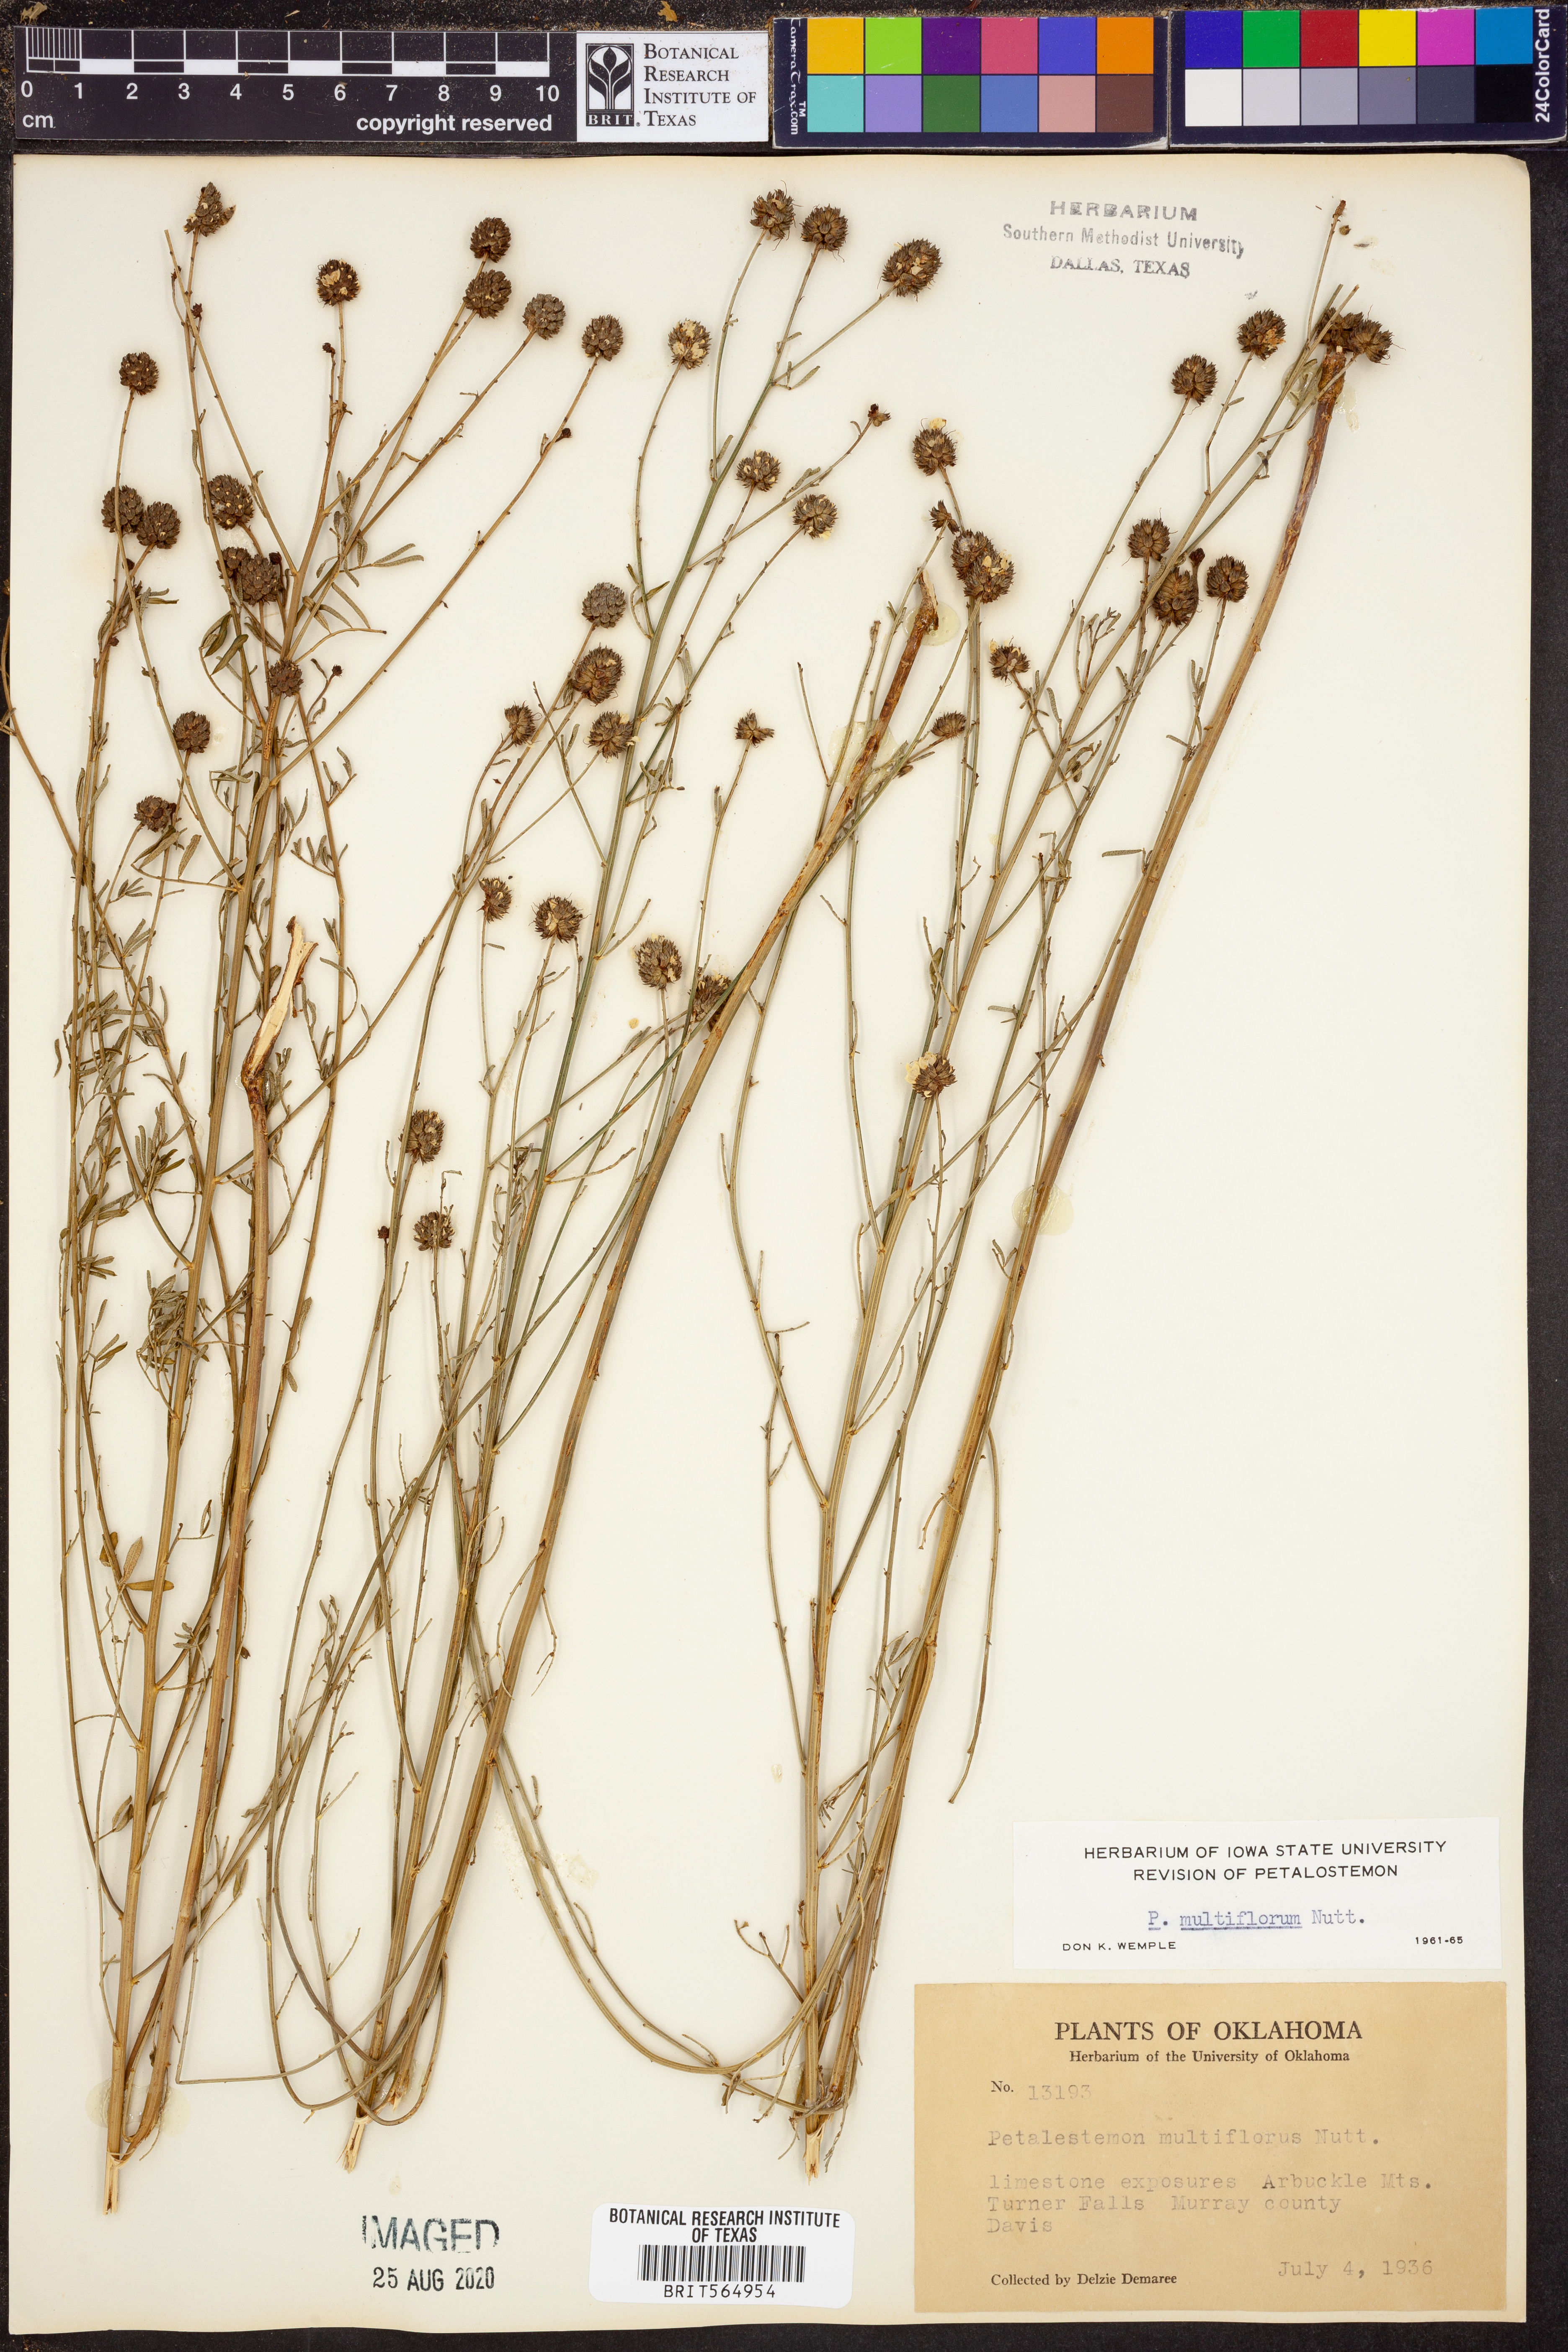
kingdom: Plantae
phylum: Tracheophyta
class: Magnoliopsida
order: Fabales
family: Fabaceae
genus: Dalea
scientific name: Dalea multiflora
